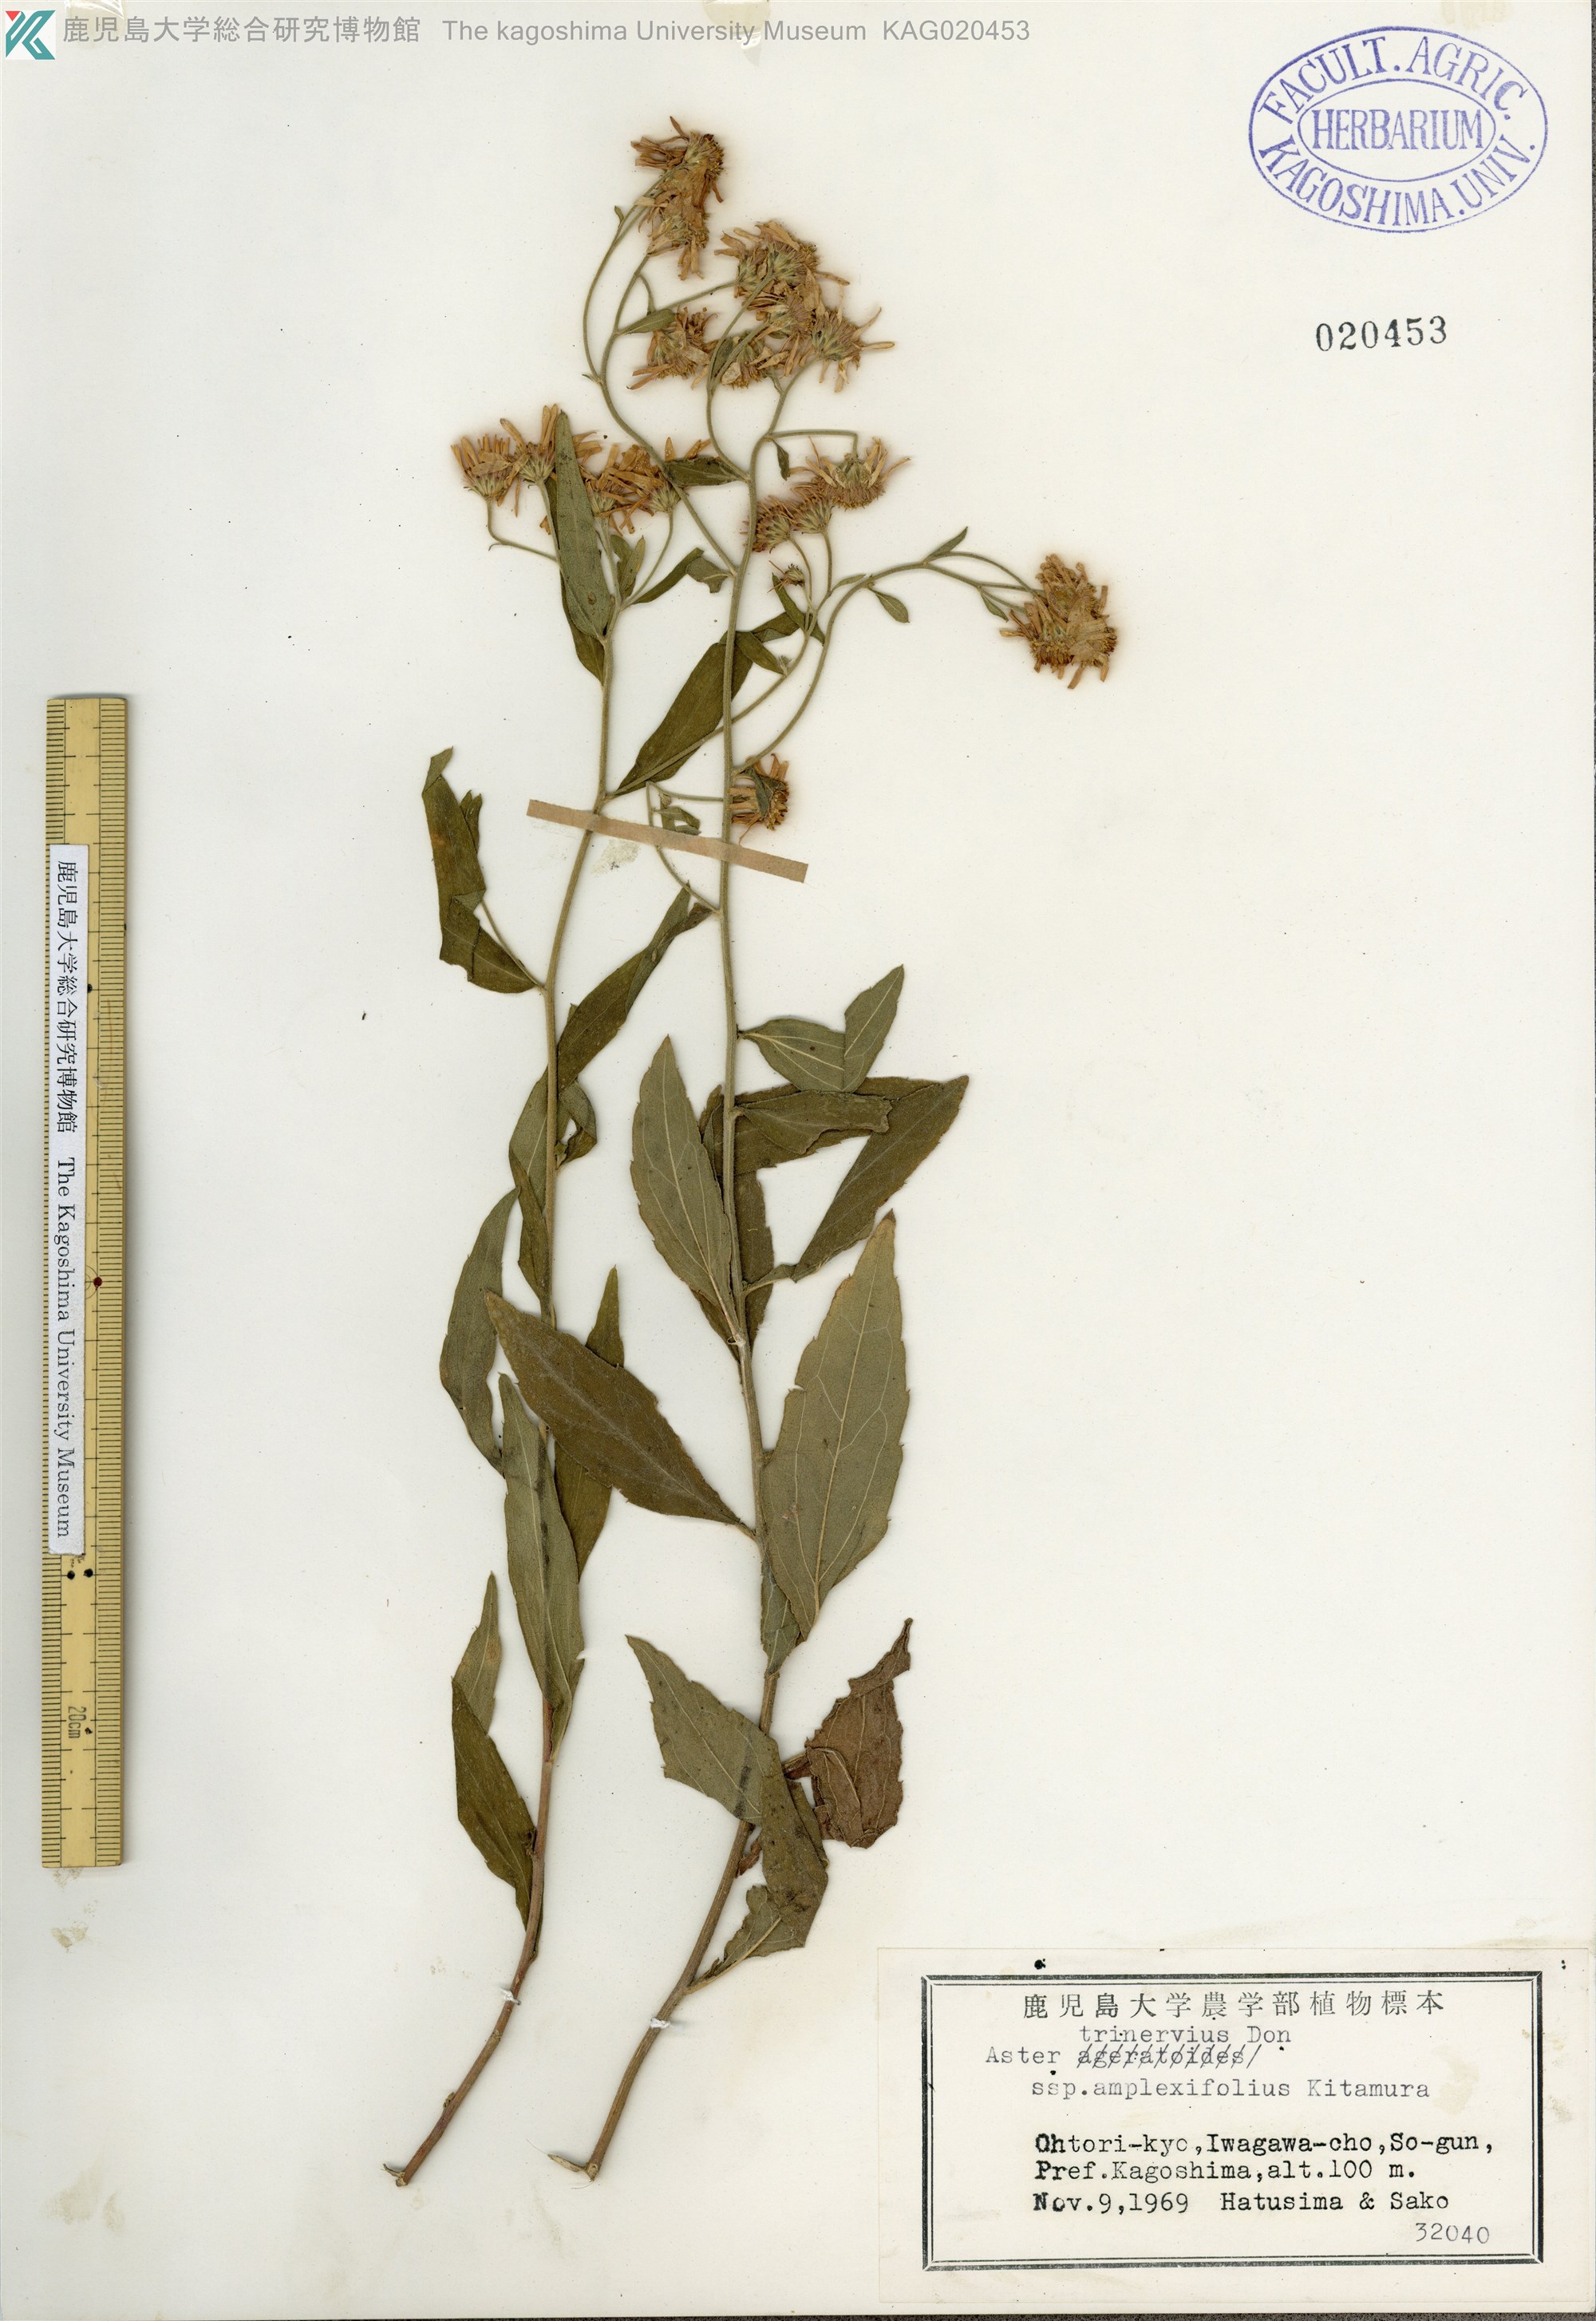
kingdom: Plantae
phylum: Tracheophyta
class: Magnoliopsida
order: Asterales
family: Asteraceae
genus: Aster
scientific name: Aster satsumensis
